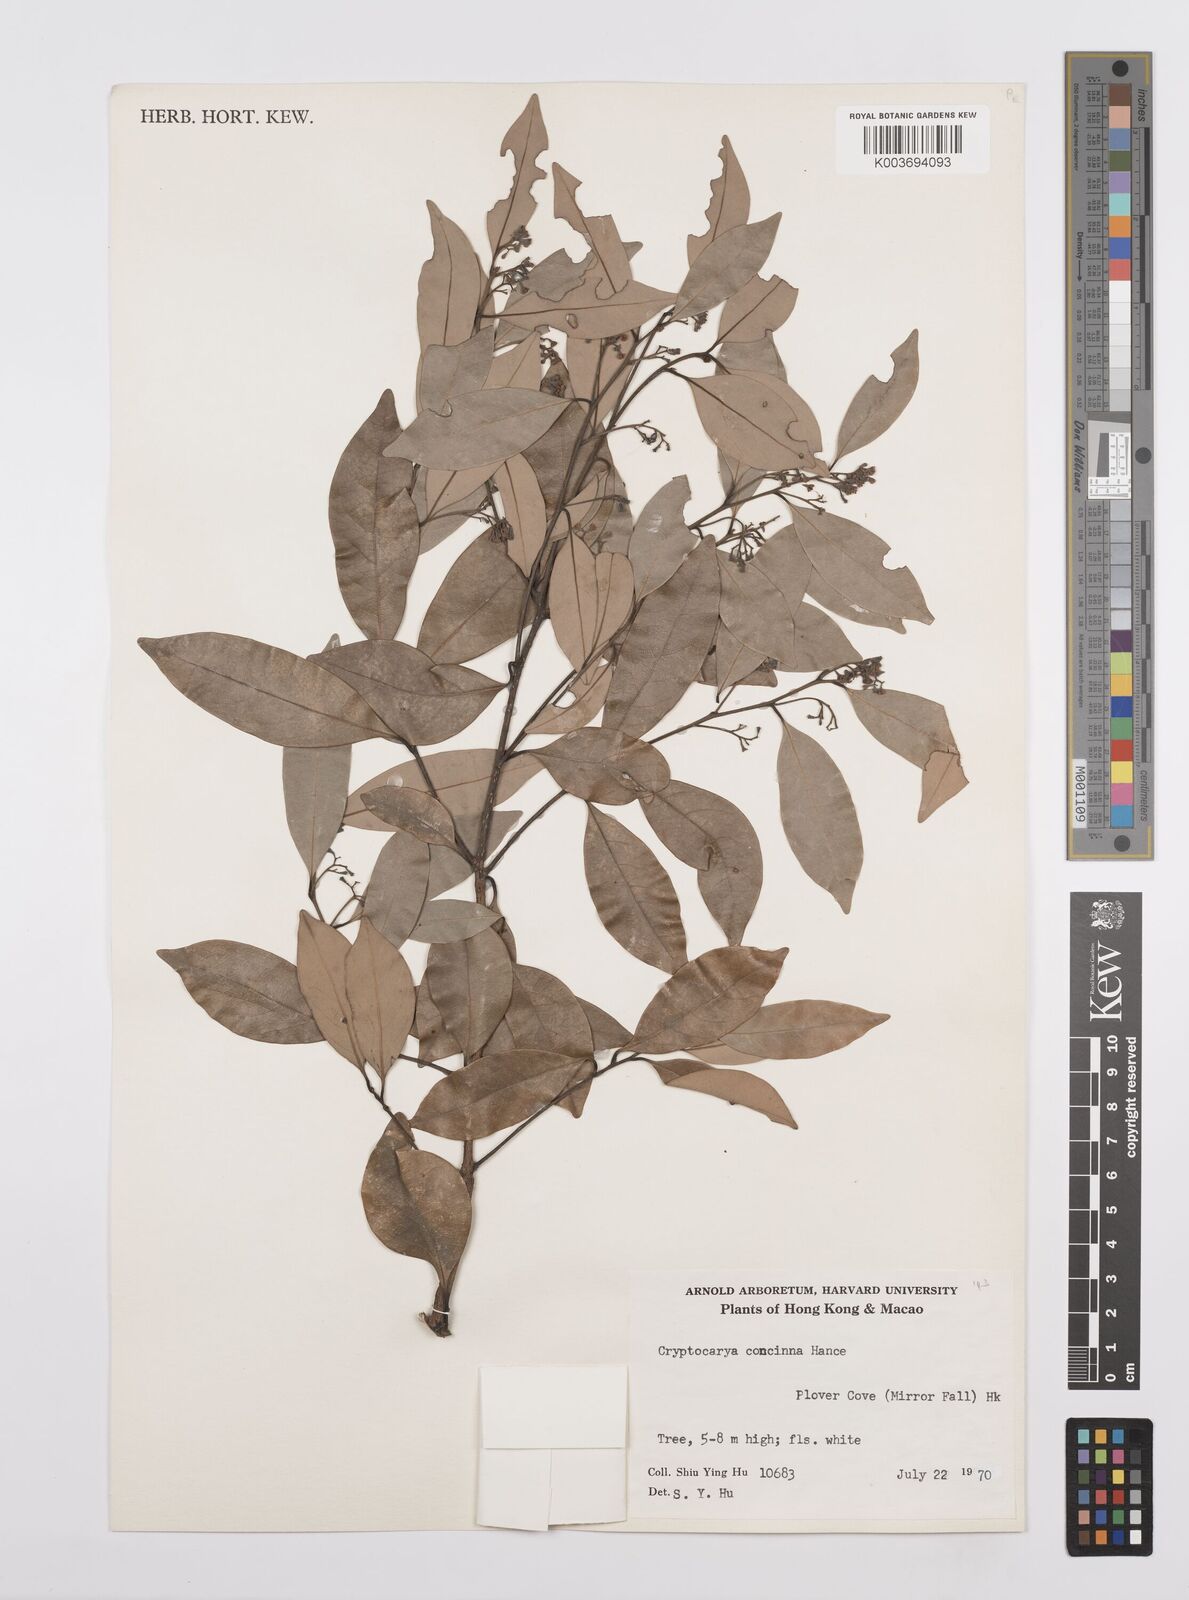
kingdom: Plantae
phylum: Tracheophyta
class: Magnoliopsida
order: Laurales
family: Lauraceae
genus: Cryptocarya
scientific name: Cryptocarya concinna
